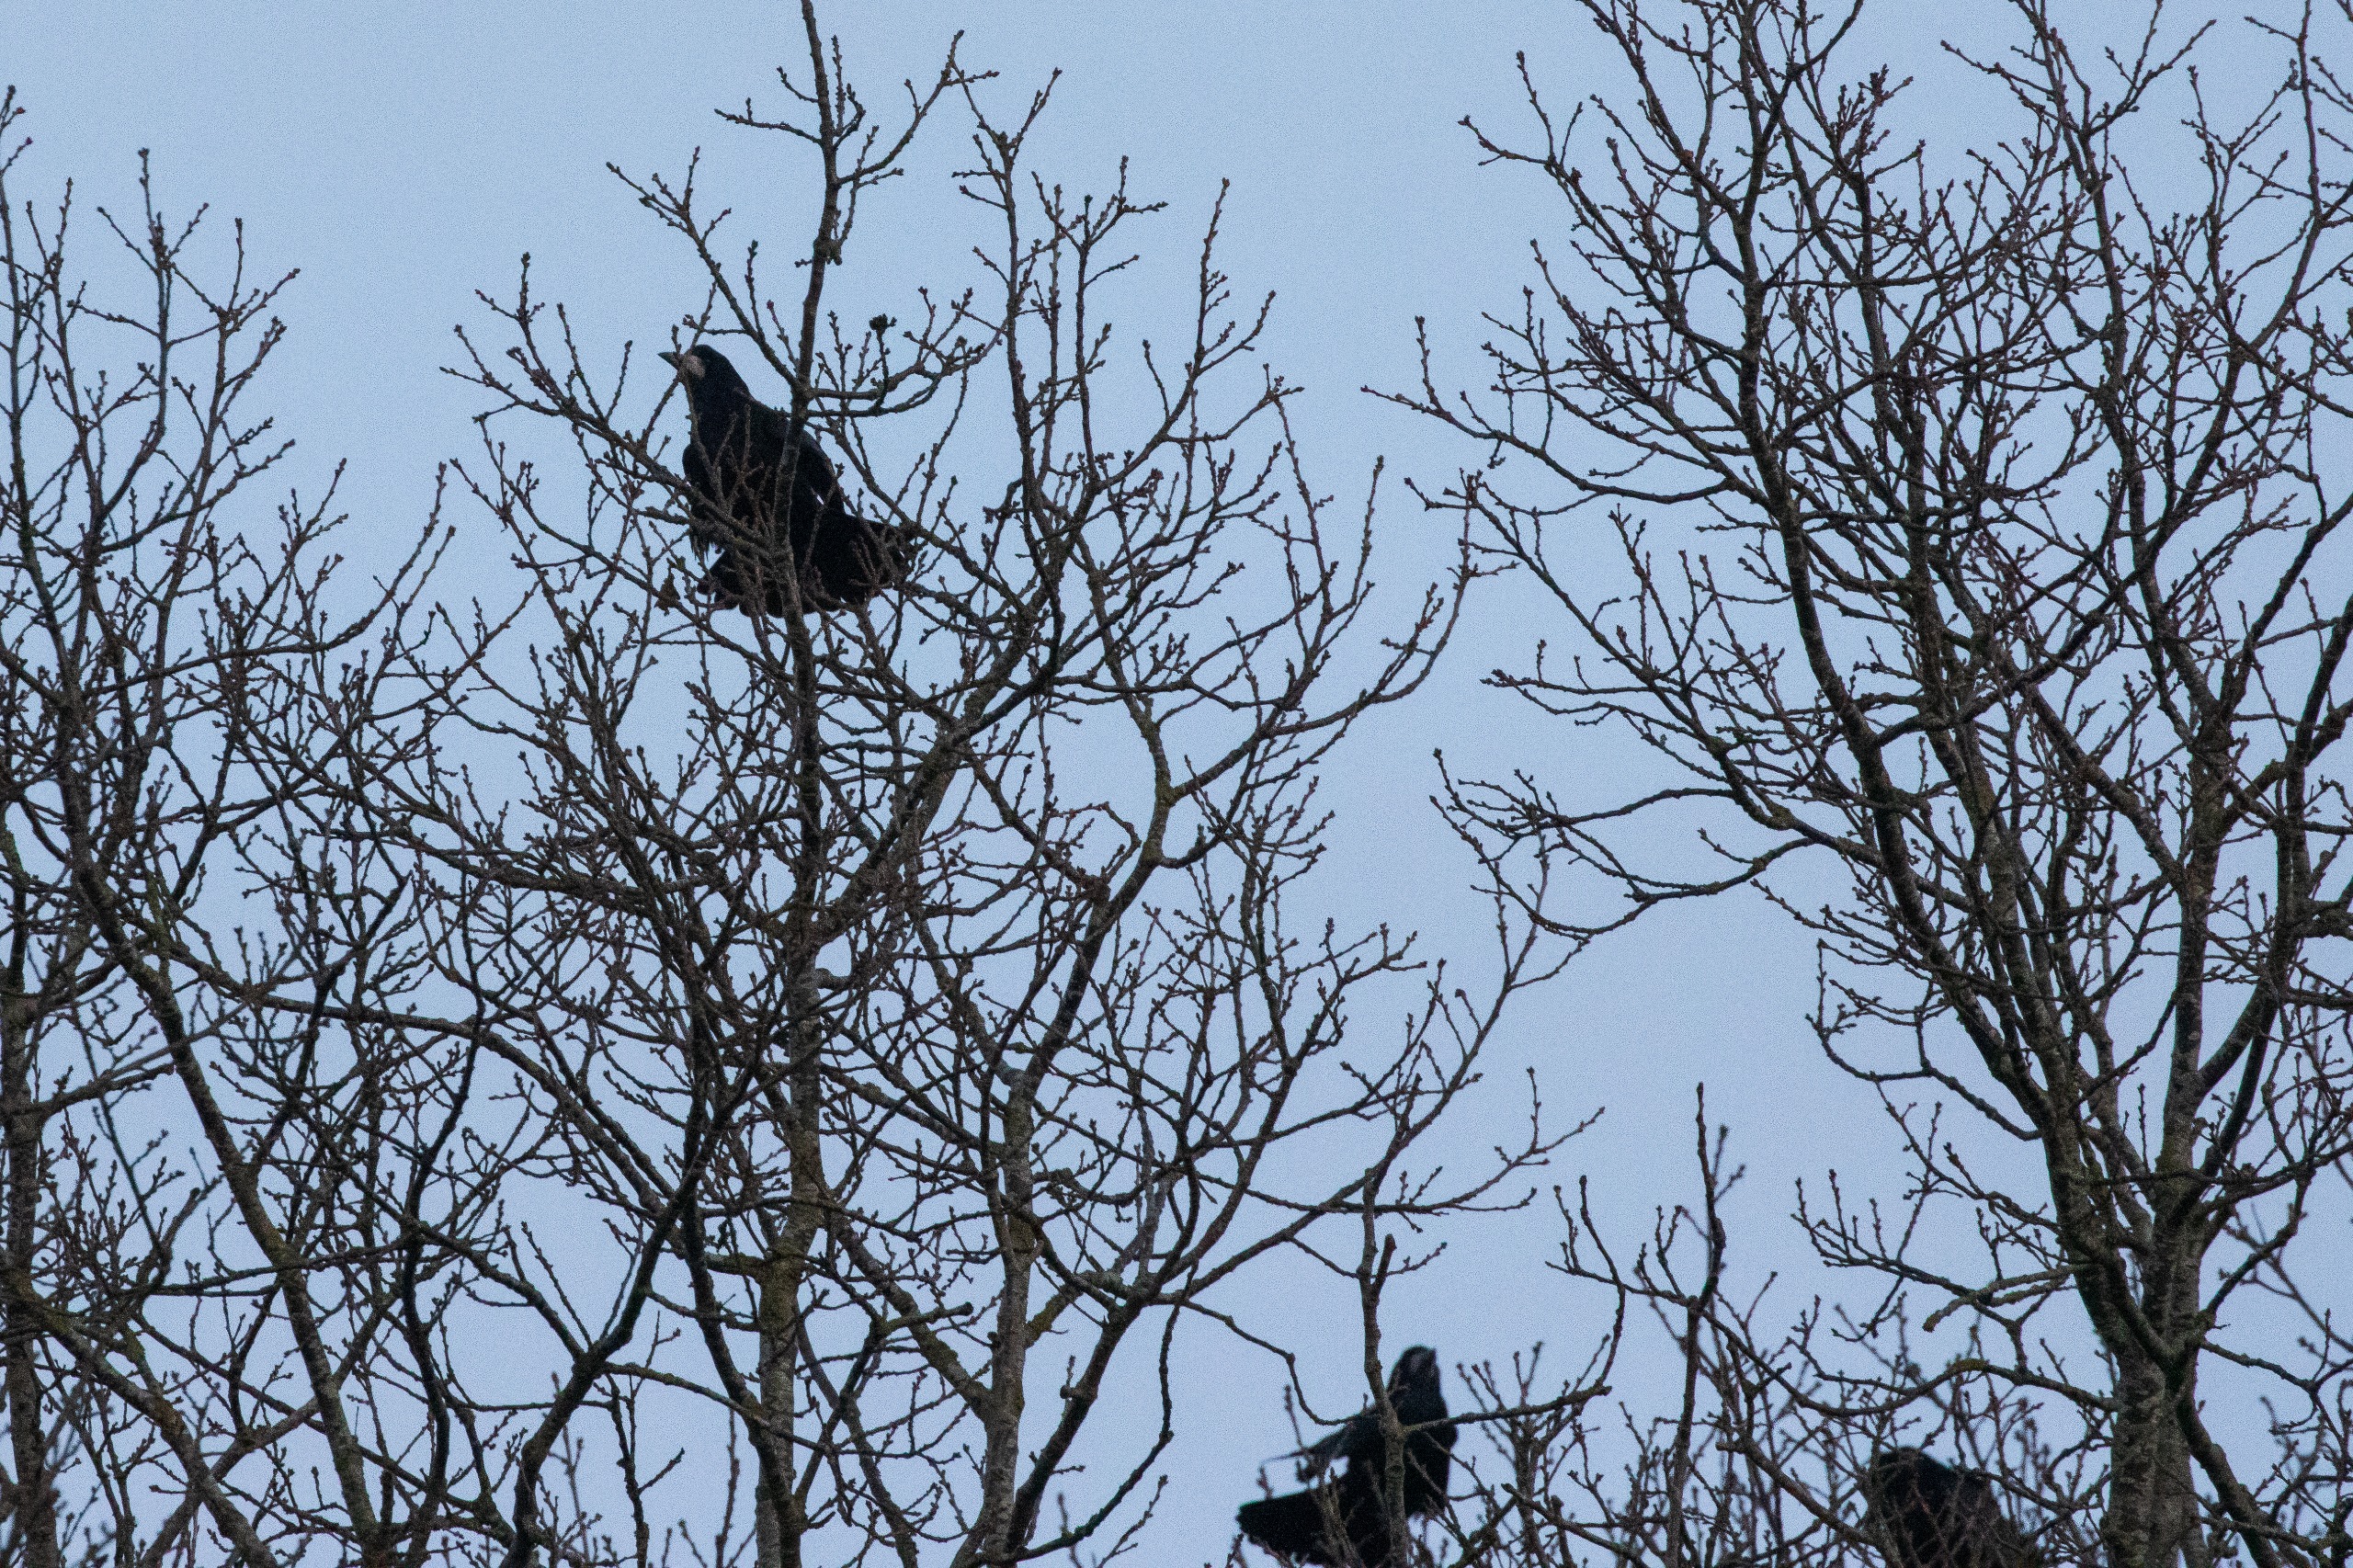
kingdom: Animalia
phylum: Chordata
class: Aves
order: Passeriformes
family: Corvidae
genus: Corvus
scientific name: Corvus frugilegus
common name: Råge
